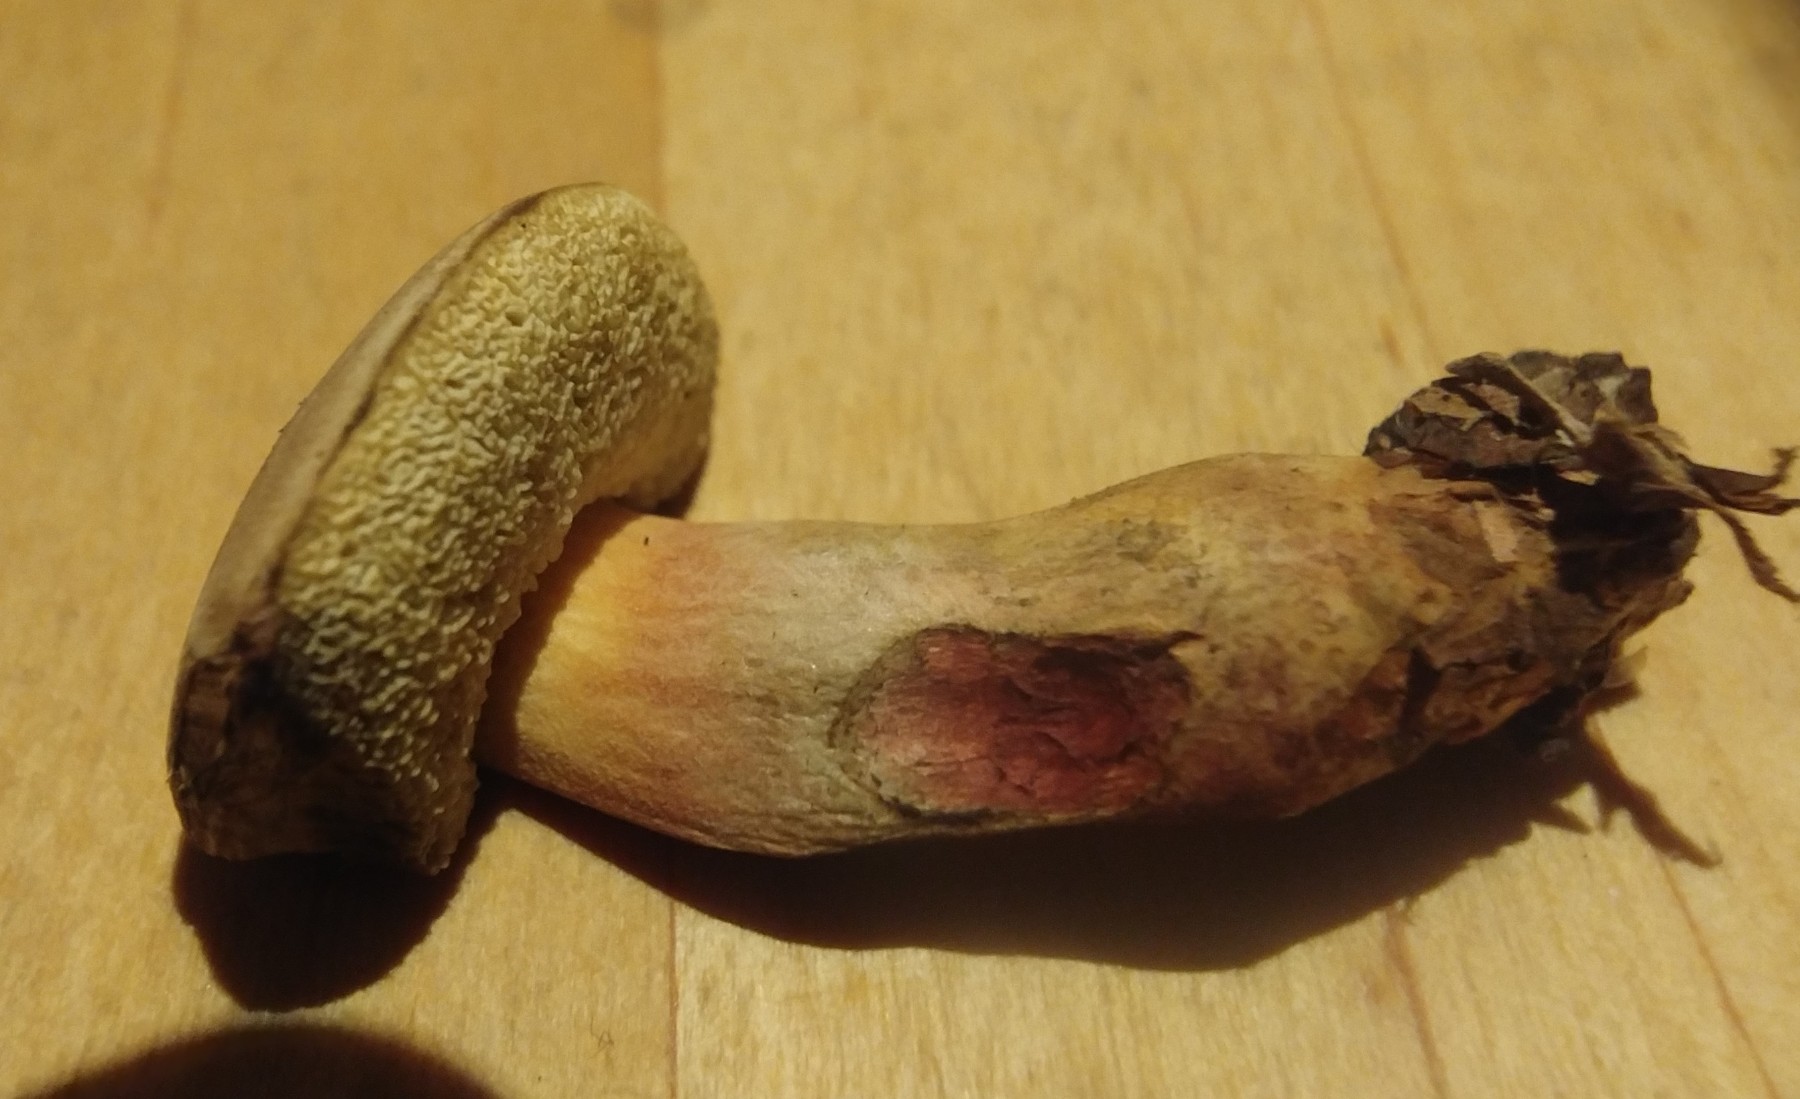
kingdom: Fungi
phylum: Basidiomycota
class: Agaricomycetes
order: Boletales
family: Boletaceae
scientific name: Boletaceae
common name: rørhatfamilien
